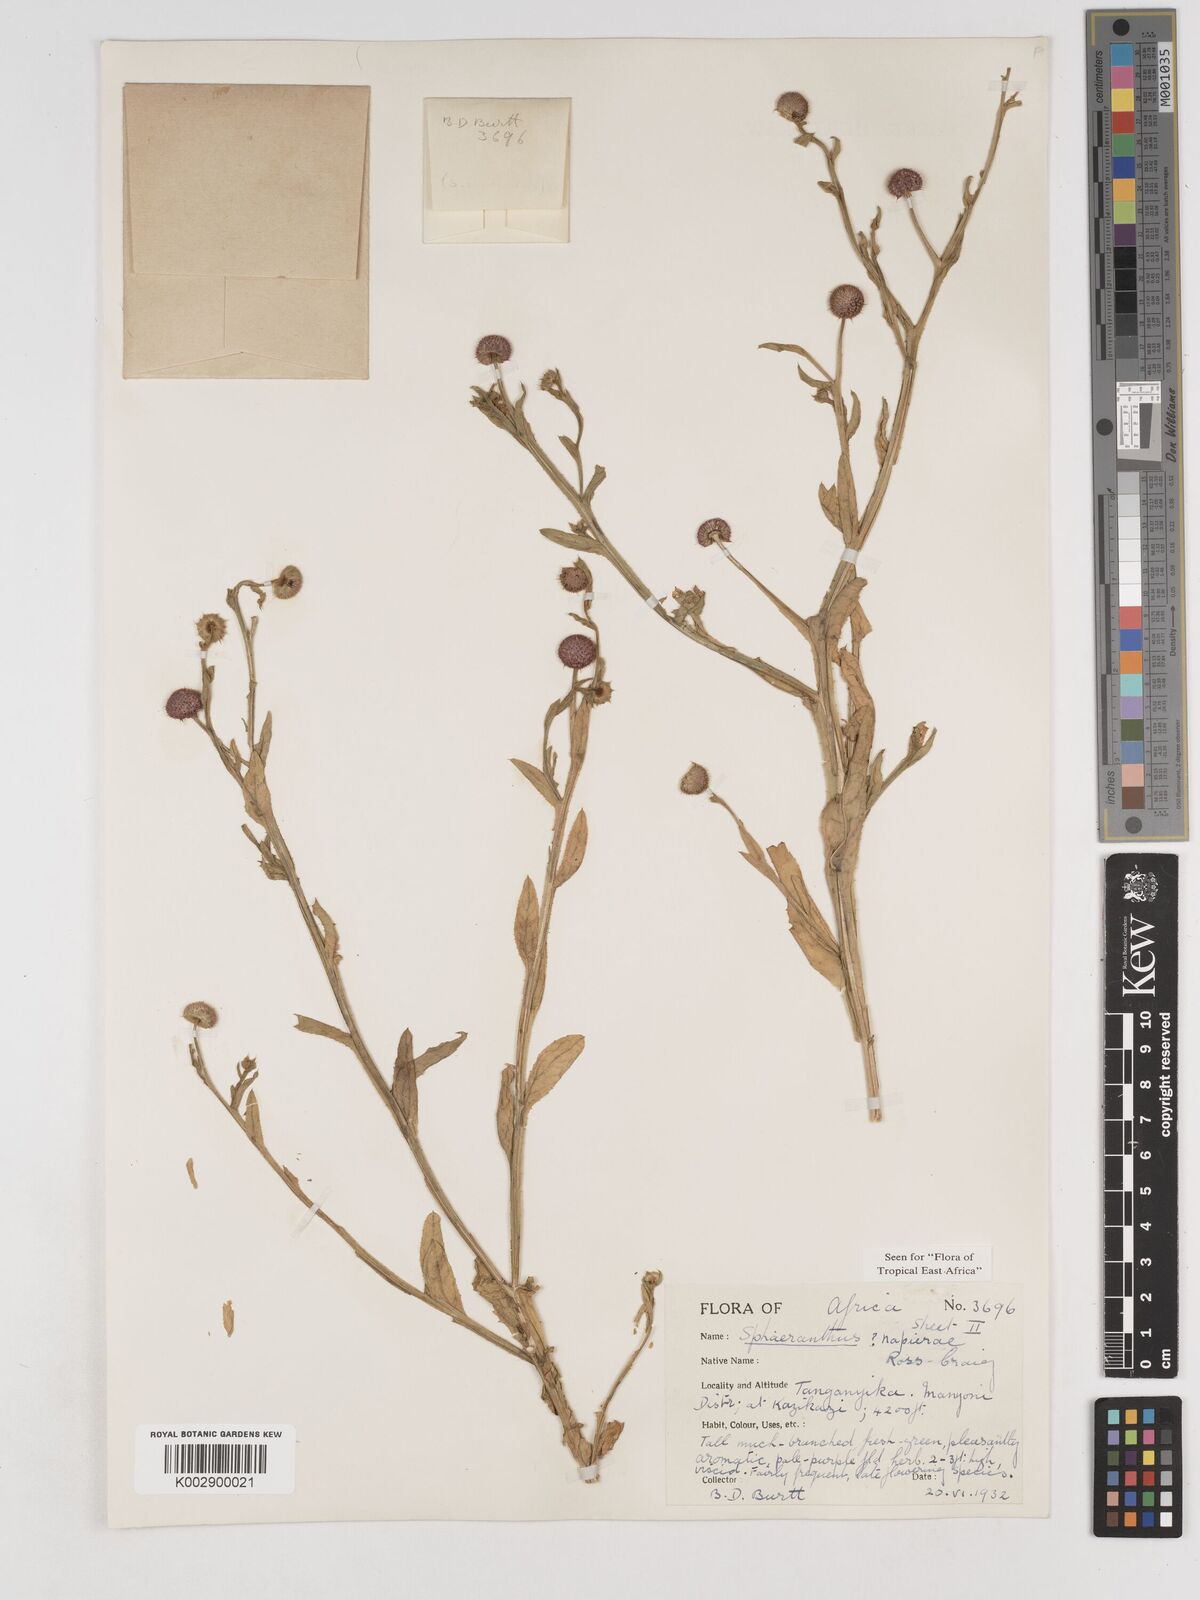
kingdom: Plantae
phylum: Tracheophyta
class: Magnoliopsida
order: Asterales
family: Asteraceae
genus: Sphaeranthus
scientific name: Sphaeranthus suaveolens
